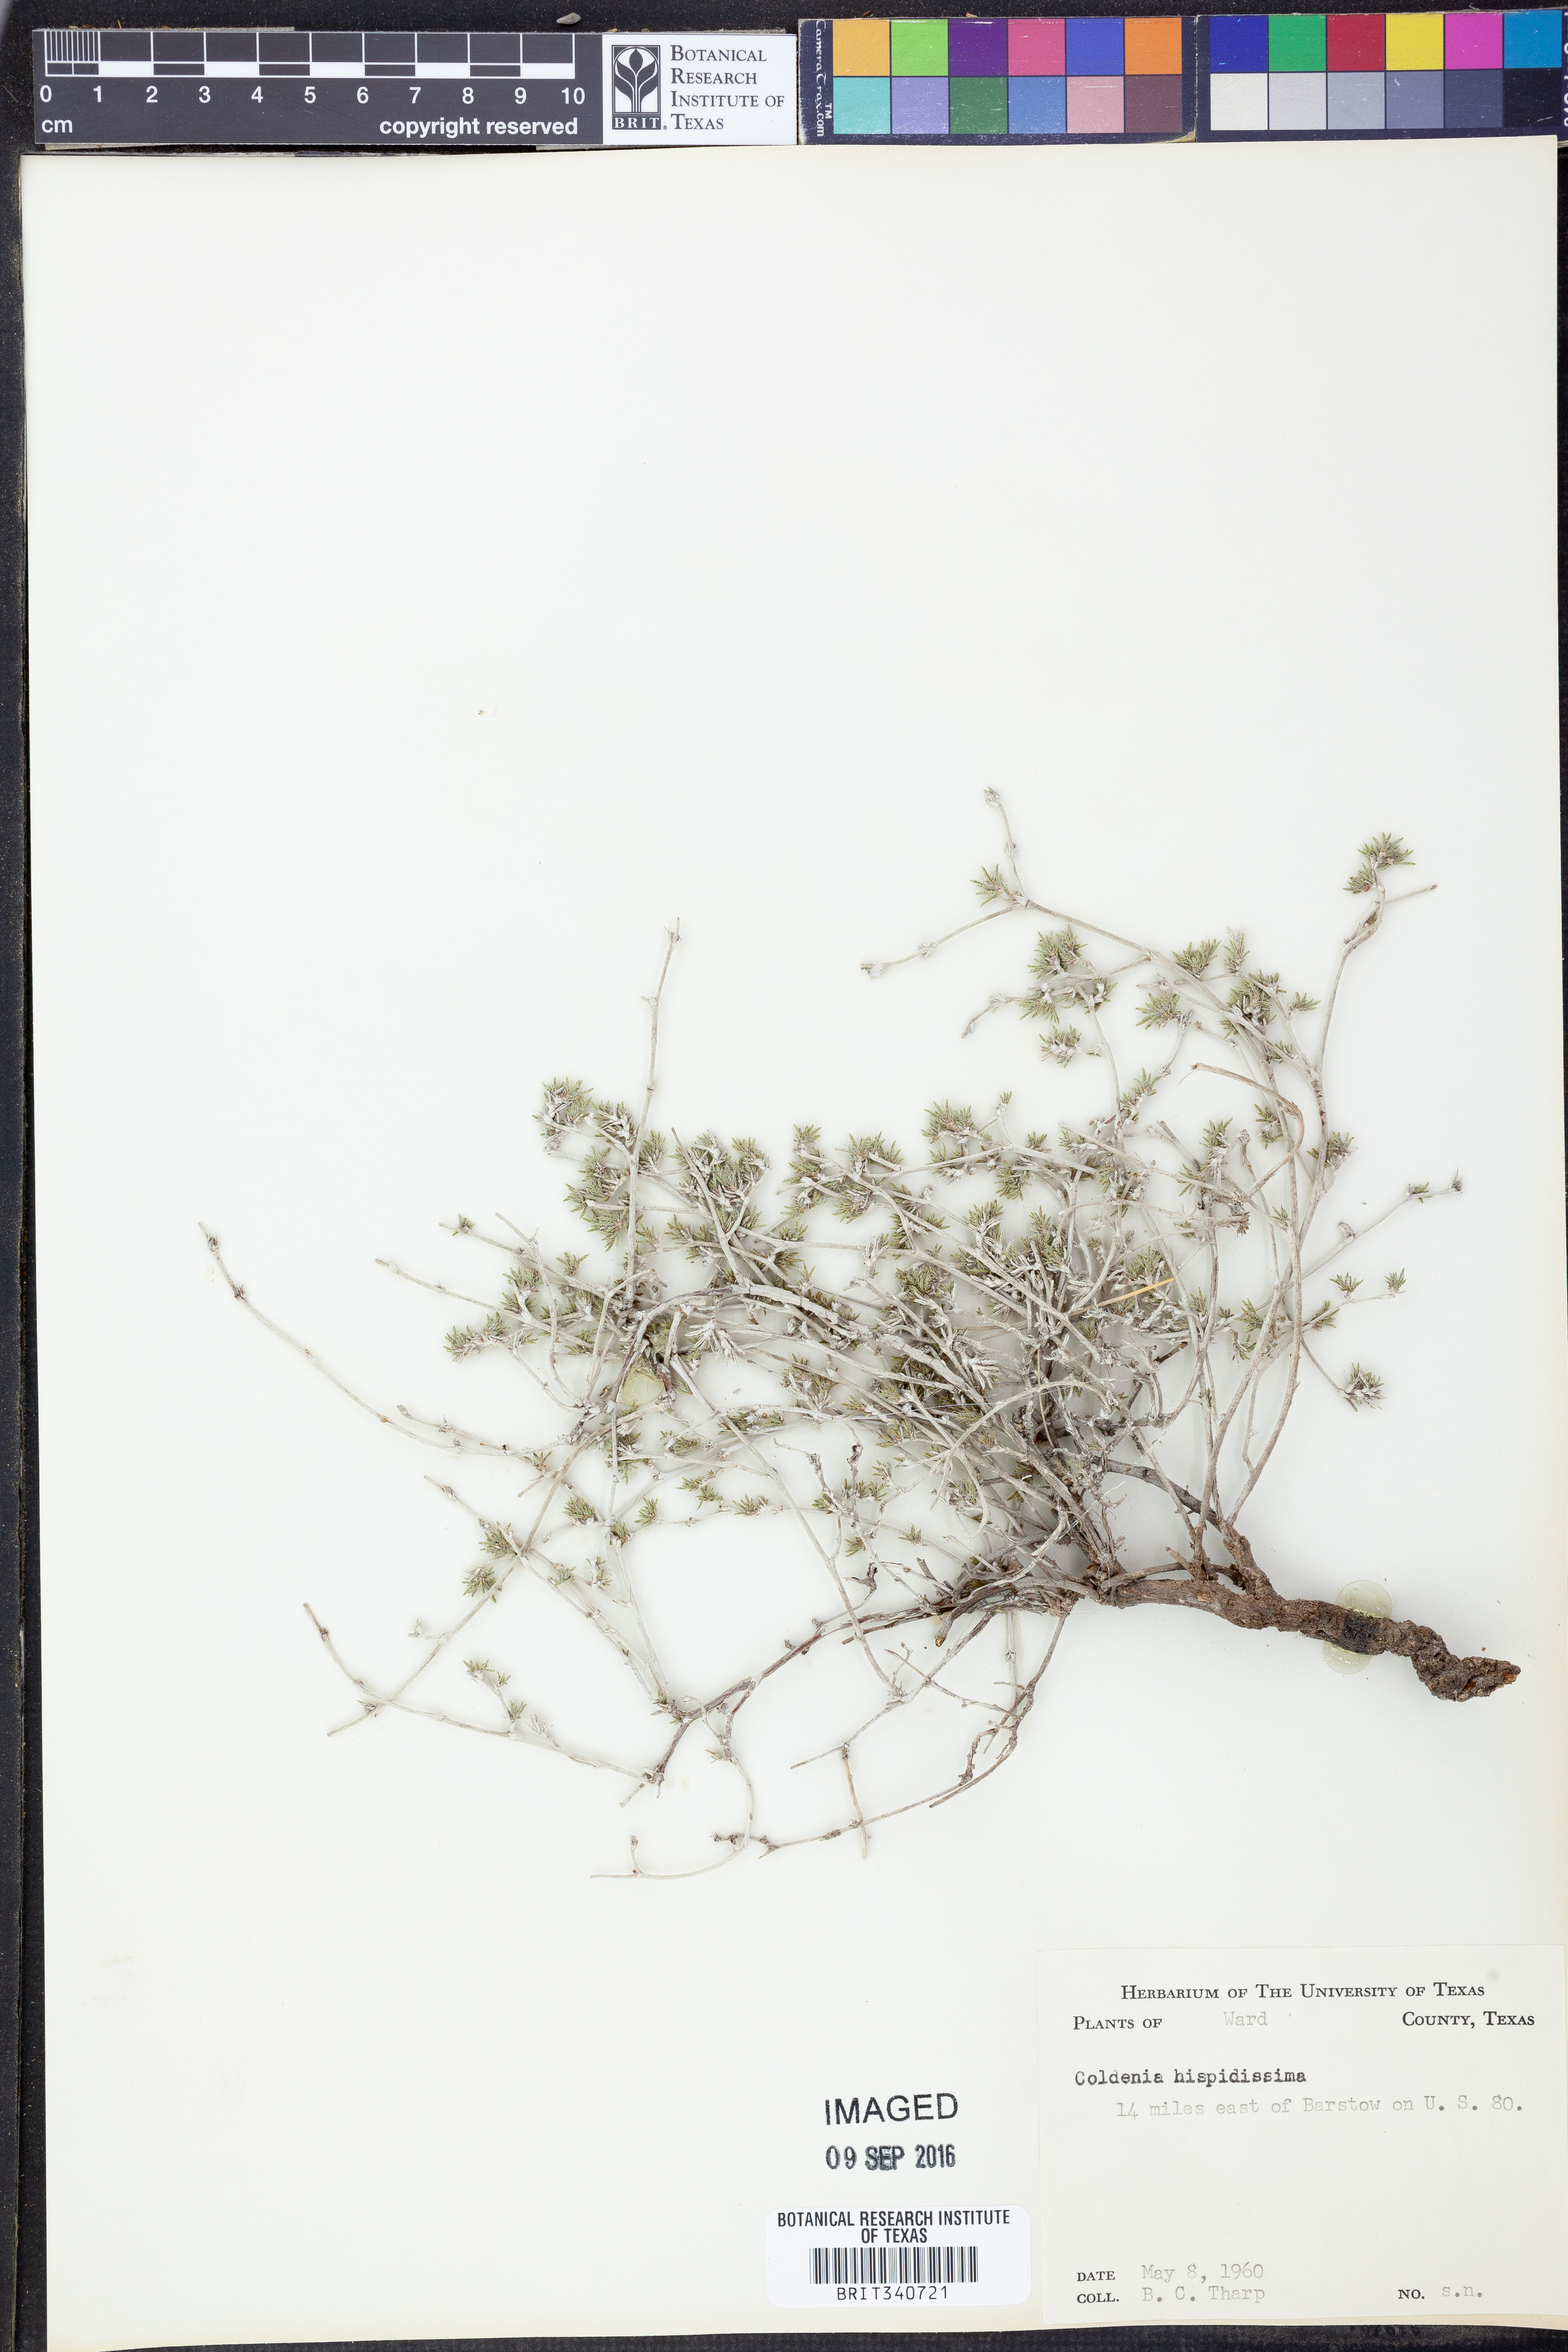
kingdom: Plantae
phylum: Tracheophyta
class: Magnoliopsida
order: Boraginales
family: Ehretiaceae
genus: Tiquilia
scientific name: Tiquilia hispidissima
